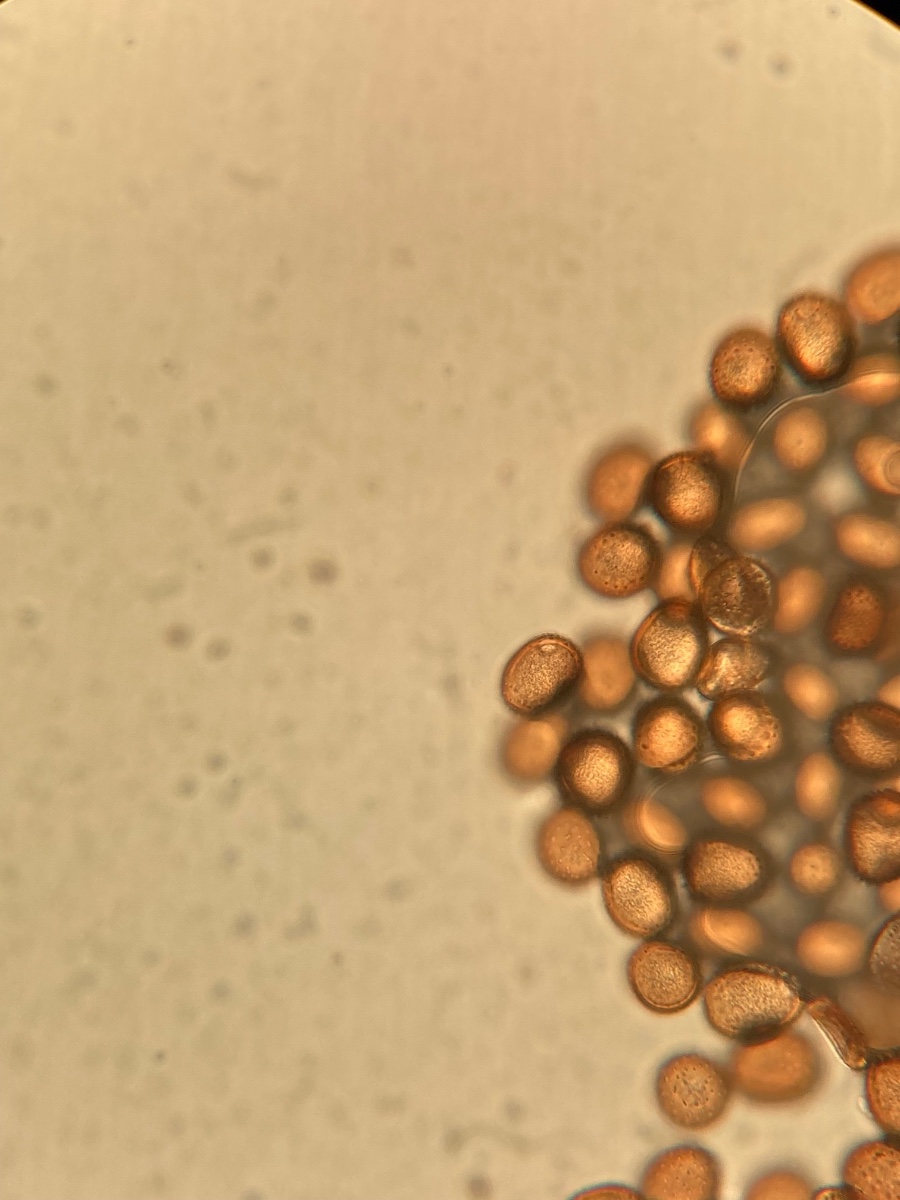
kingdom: Fungi
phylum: Basidiomycota
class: Pucciniomycetes
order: Pucciniales
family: Pucciniaceae
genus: Puccinia
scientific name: Puccinia komarovii
